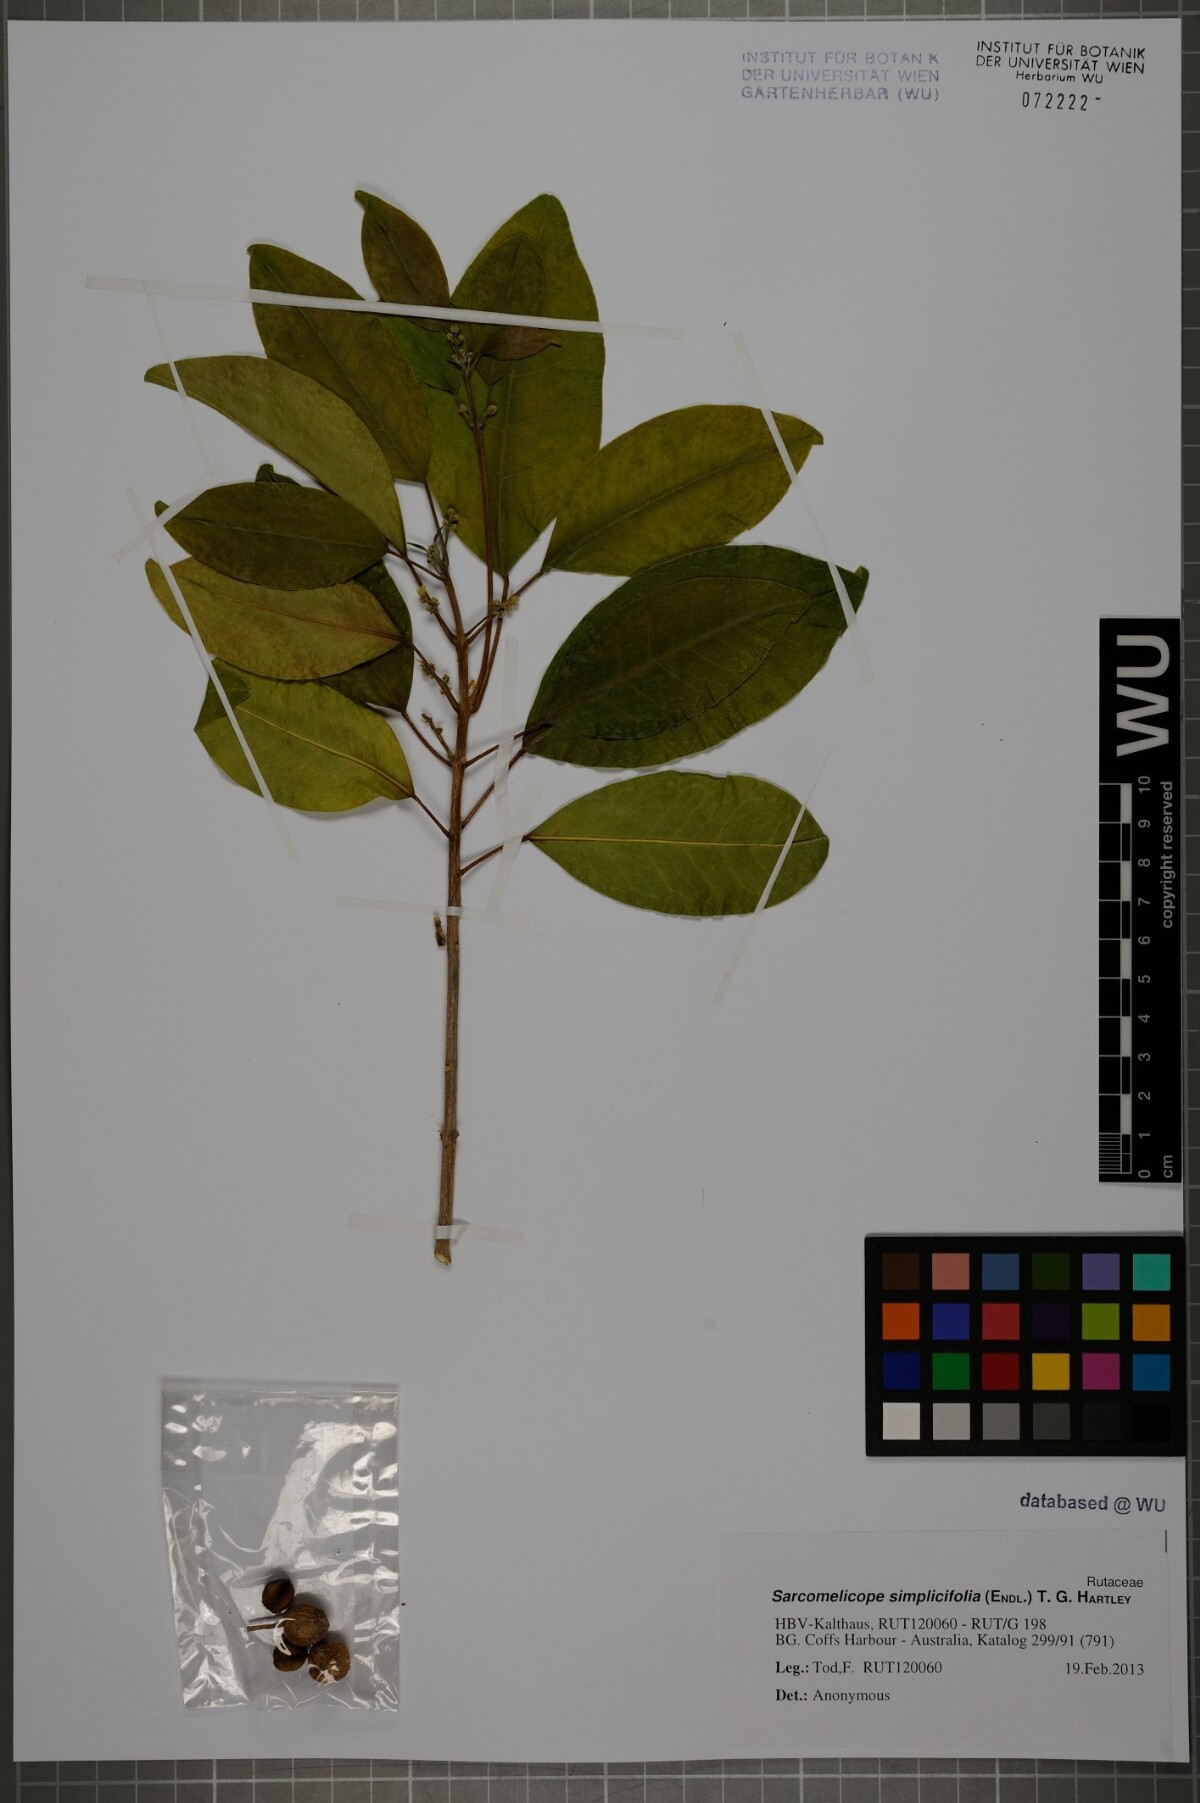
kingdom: Plantae
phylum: Tracheophyta
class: Magnoliopsida
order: Sapindales
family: Rutaceae
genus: Sarcomelicope
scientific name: Sarcomelicope simplicifolia
